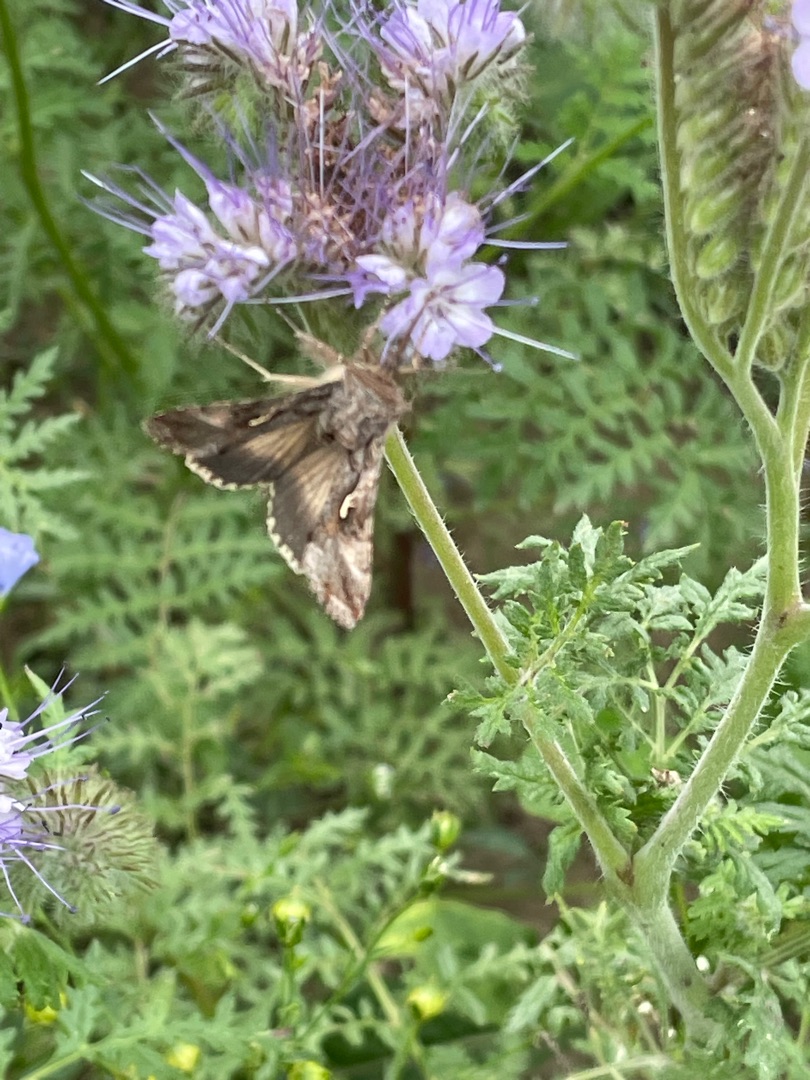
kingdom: Animalia
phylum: Arthropoda
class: Insecta
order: Lepidoptera
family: Noctuidae
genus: Autographa
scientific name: Autographa gamma
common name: Gammaugle
